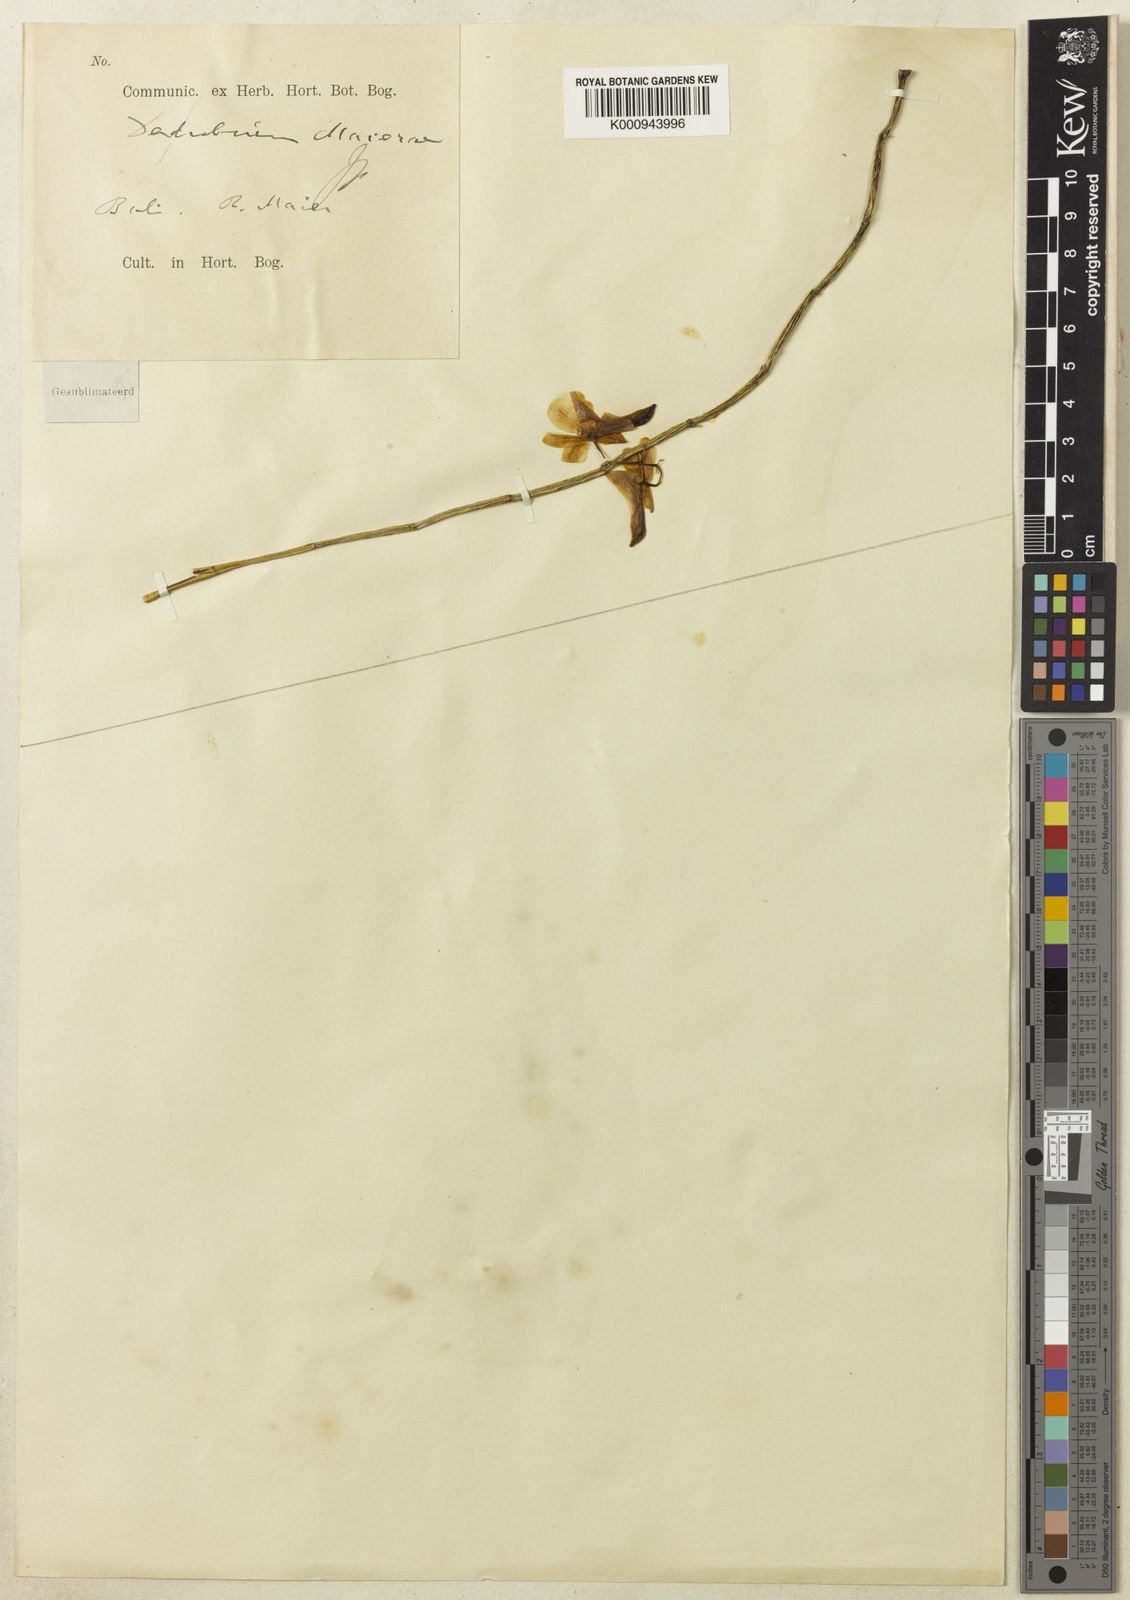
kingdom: Plantae
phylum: Tracheophyta
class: Liliopsida
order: Asparagales
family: Orchidaceae
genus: Dendrobium
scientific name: Dendrobium maierae
